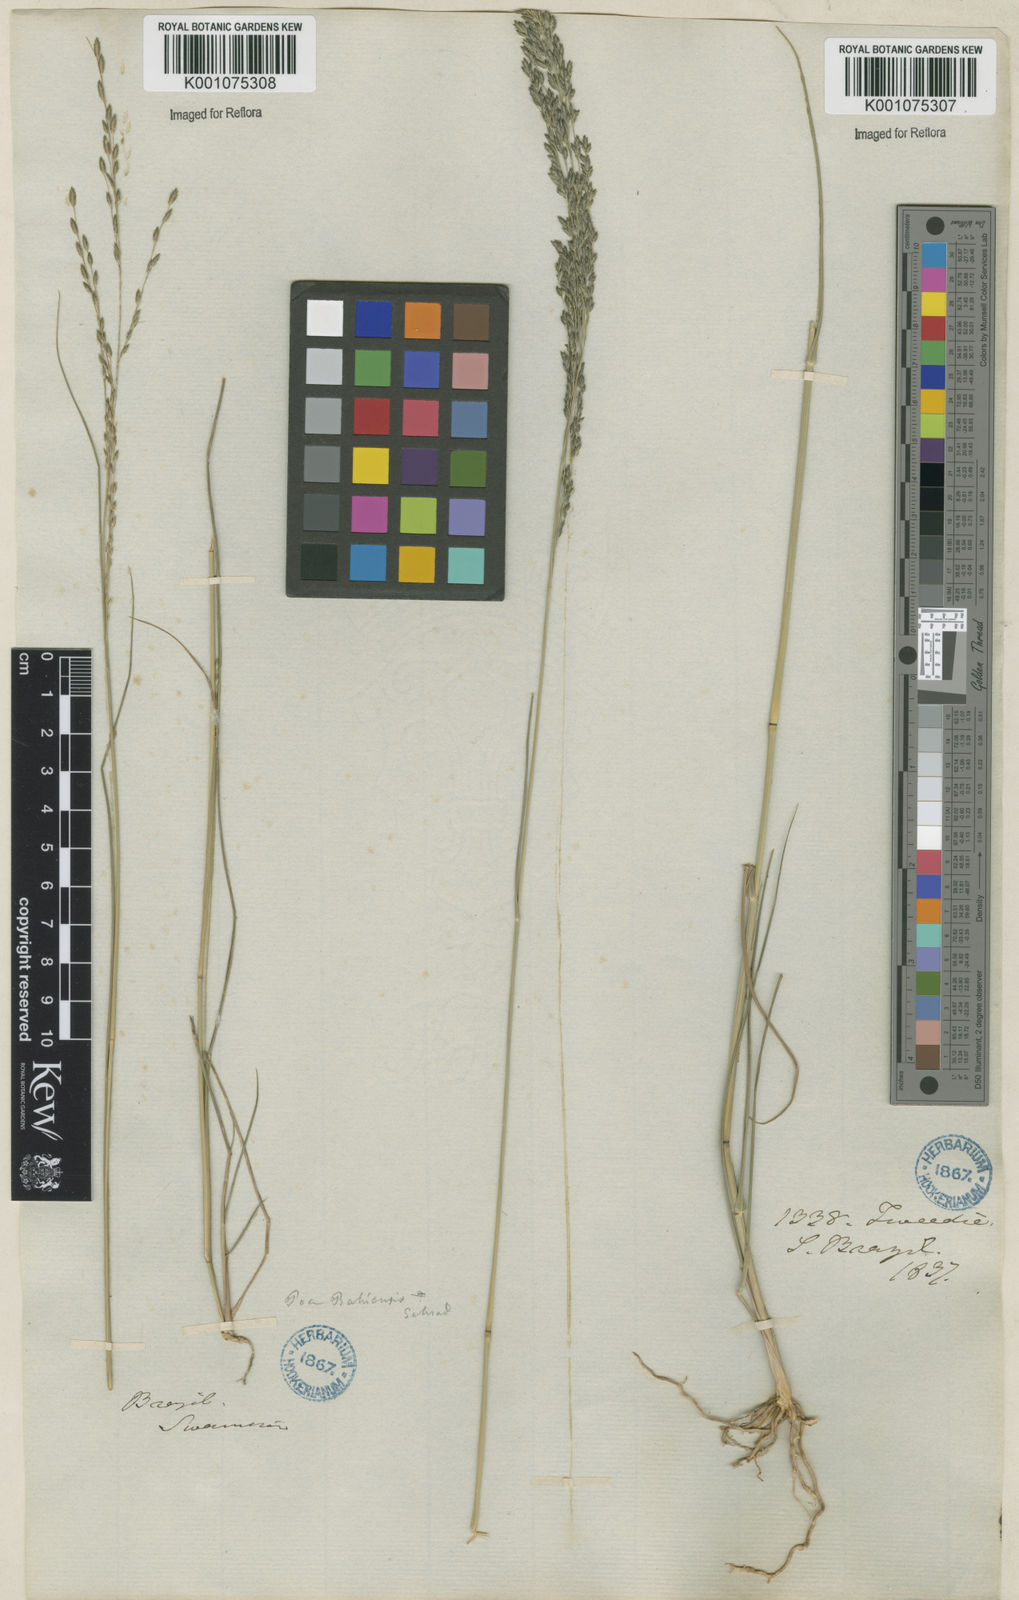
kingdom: Plantae
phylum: Tracheophyta
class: Liliopsida
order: Poales
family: Poaceae
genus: Eragrostis
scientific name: Eragrostis bahiensis
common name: Bahia lovegrass
